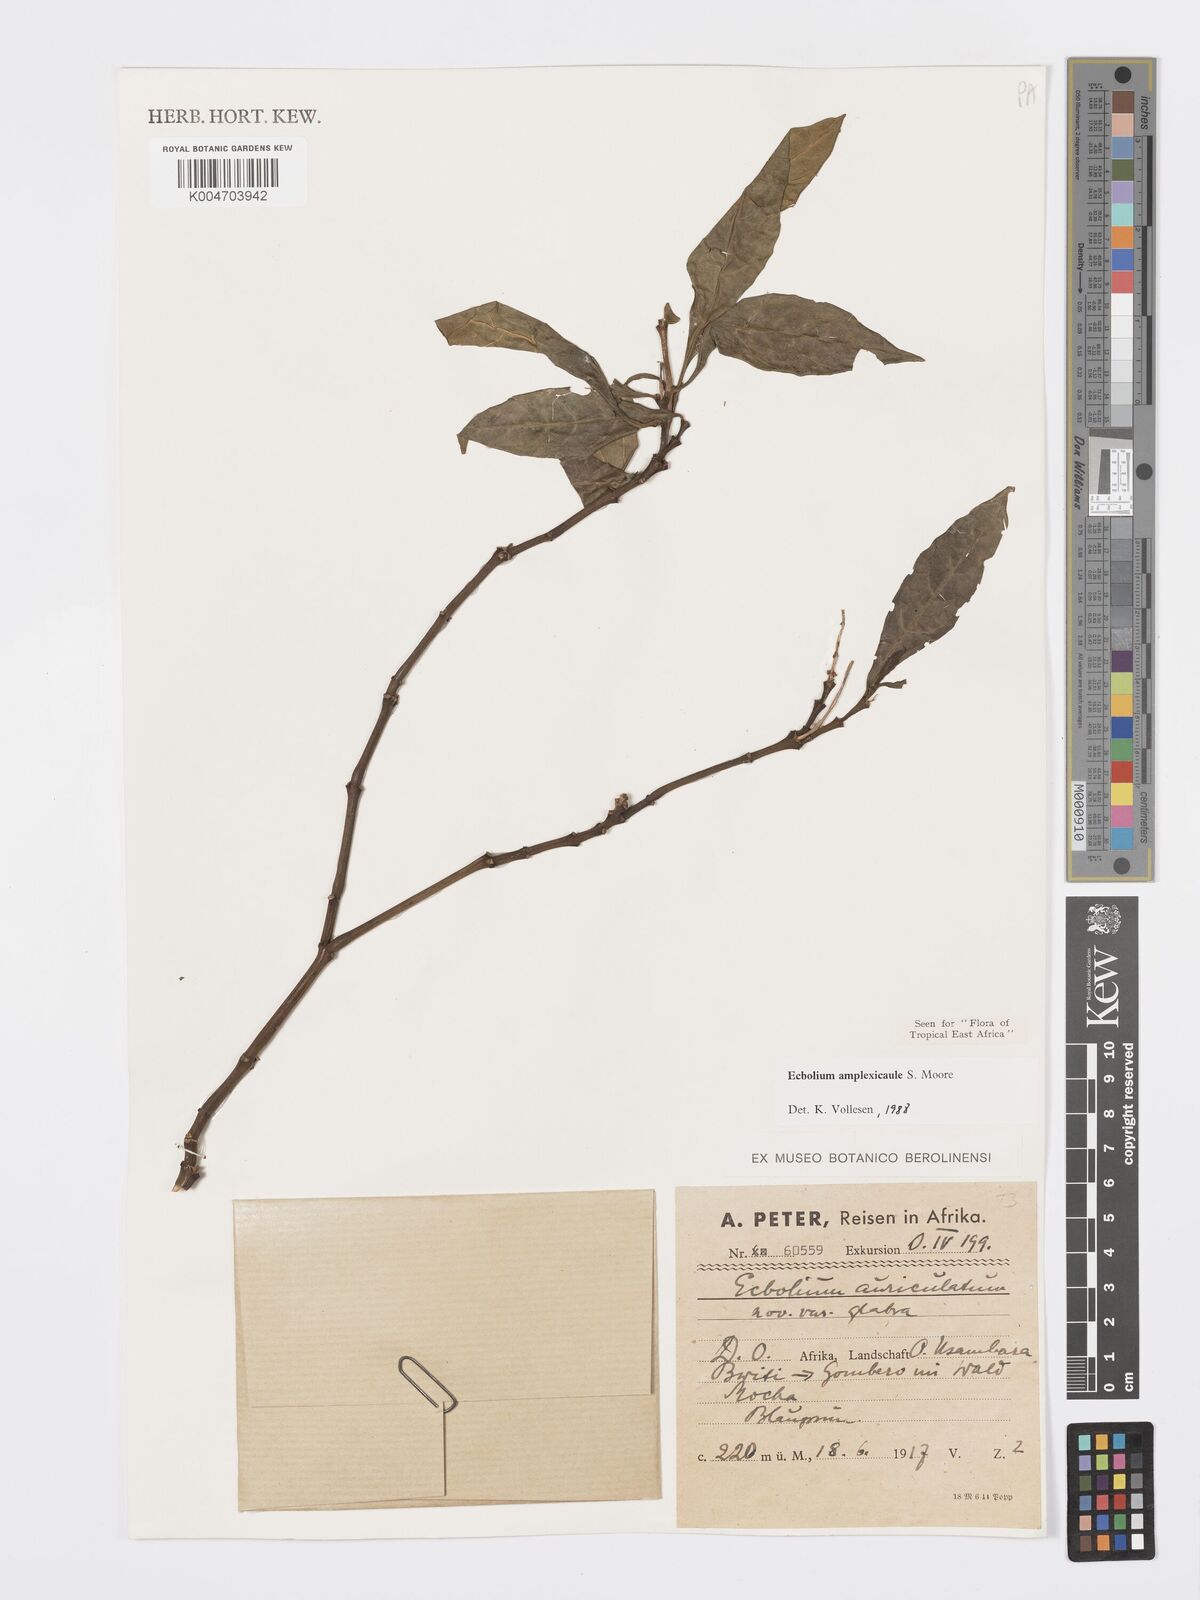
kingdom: Plantae
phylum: Tracheophyta
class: Magnoliopsida
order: Lamiales
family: Acanthaceae
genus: Ecbolium
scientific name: Ecbolium amplexicaule
